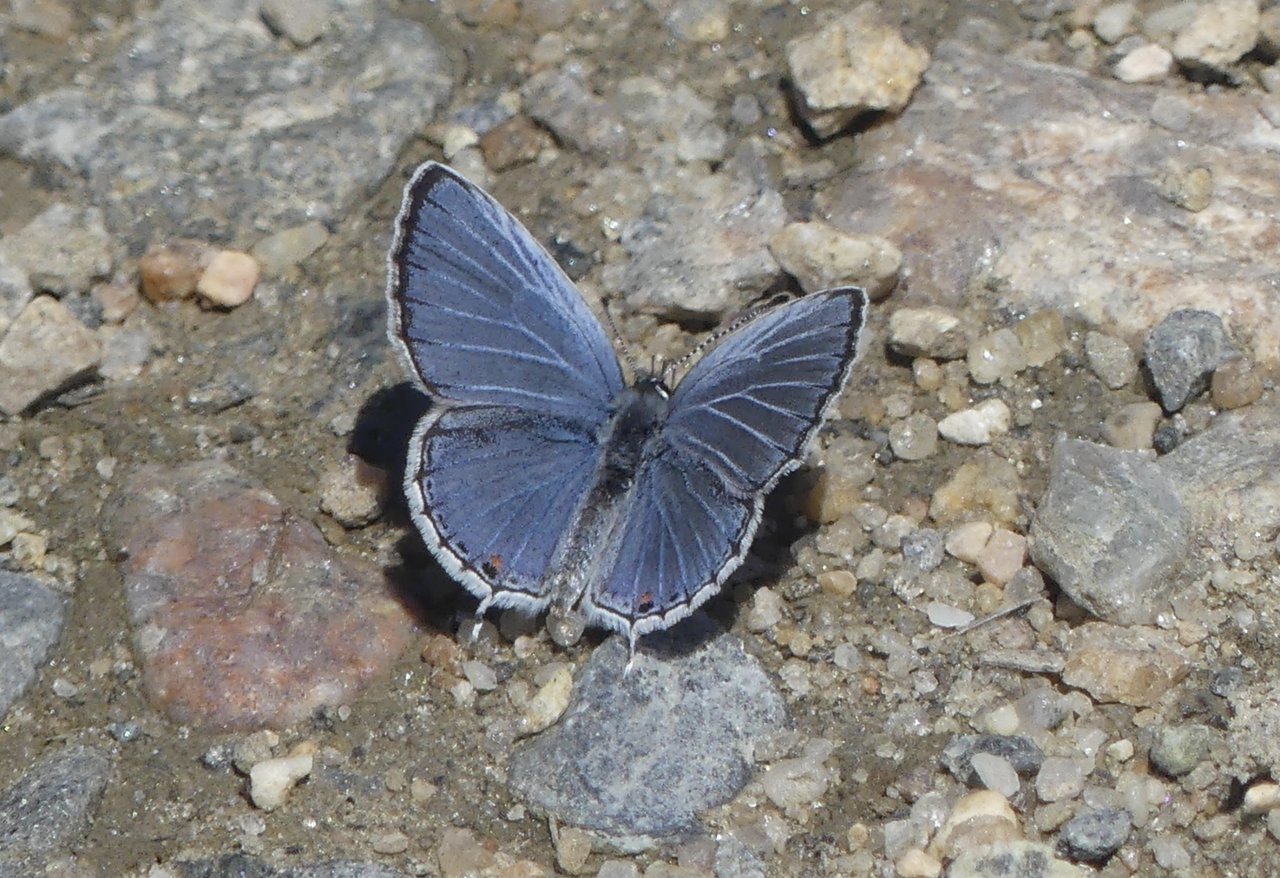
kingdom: Animalia
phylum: Arthropoda
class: Insecta
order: Lepidoptera
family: Lycaenidae
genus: Elkalyce
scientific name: Elkalyce comyntas
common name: Eastern Tailed-Blue
